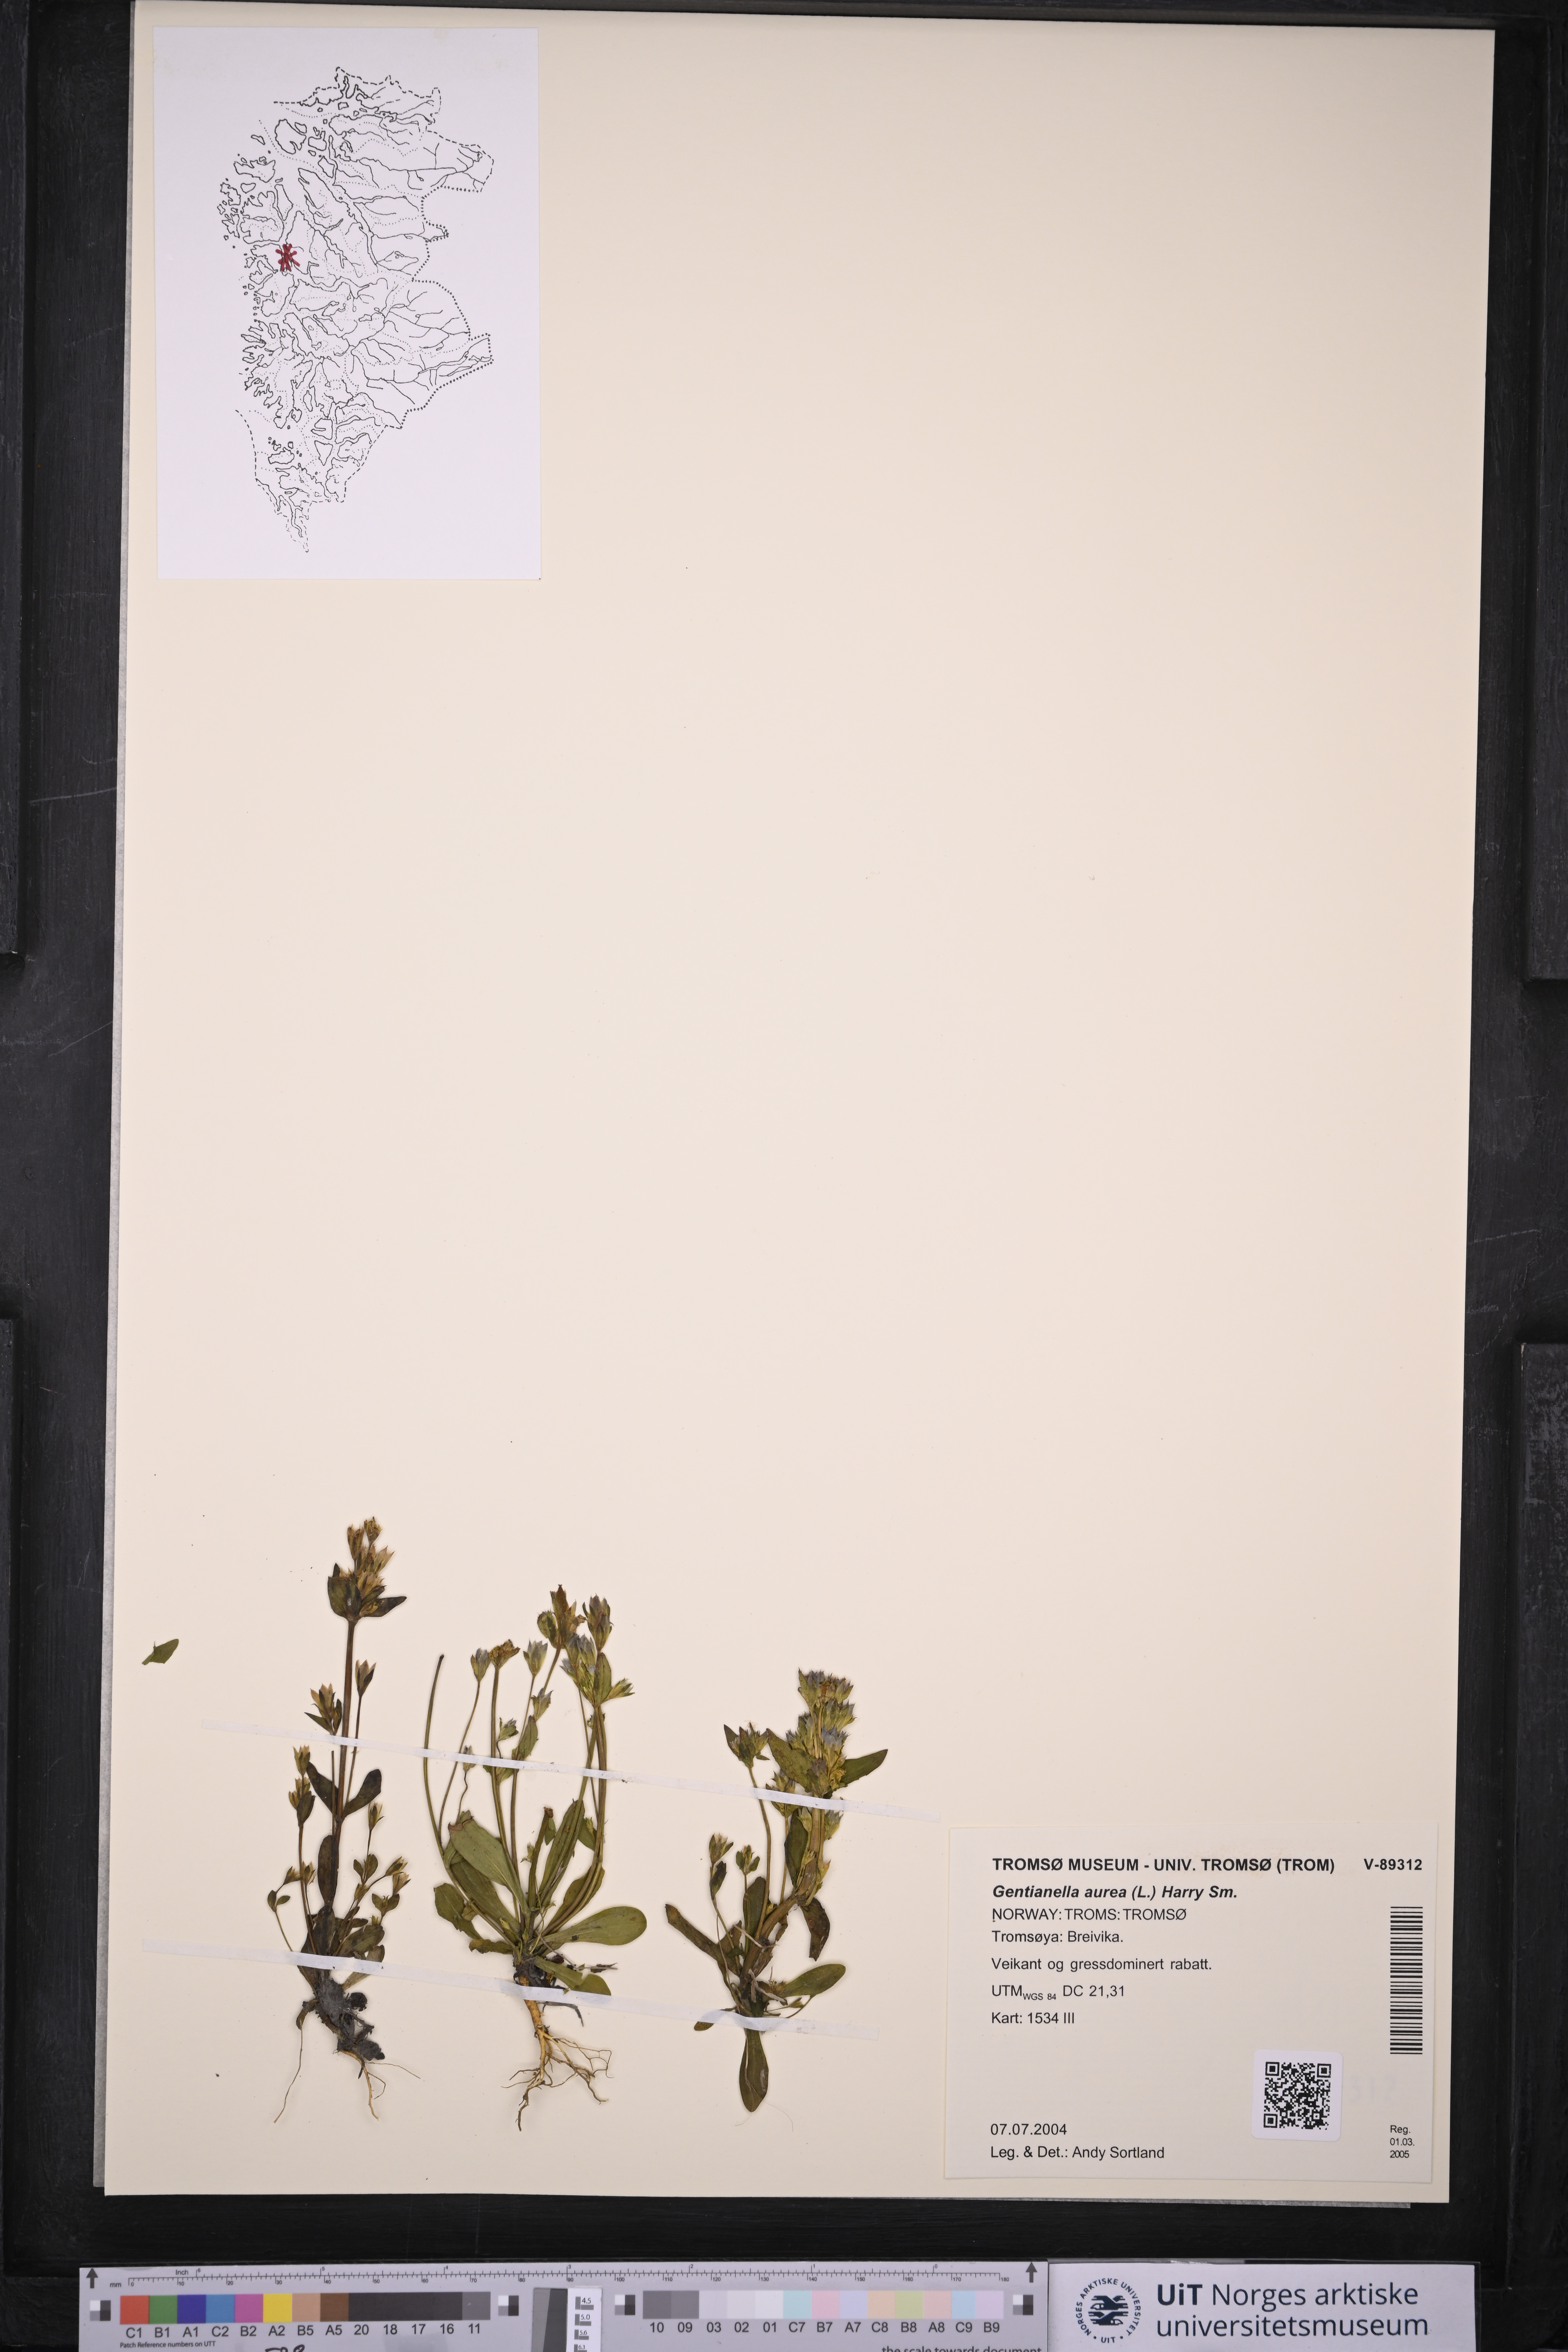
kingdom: Plantae
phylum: Tracheophyta
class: Magnoliopsida
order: Gentianales
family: Gentianaceae
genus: Gentianella
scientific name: Gentianella aurea
